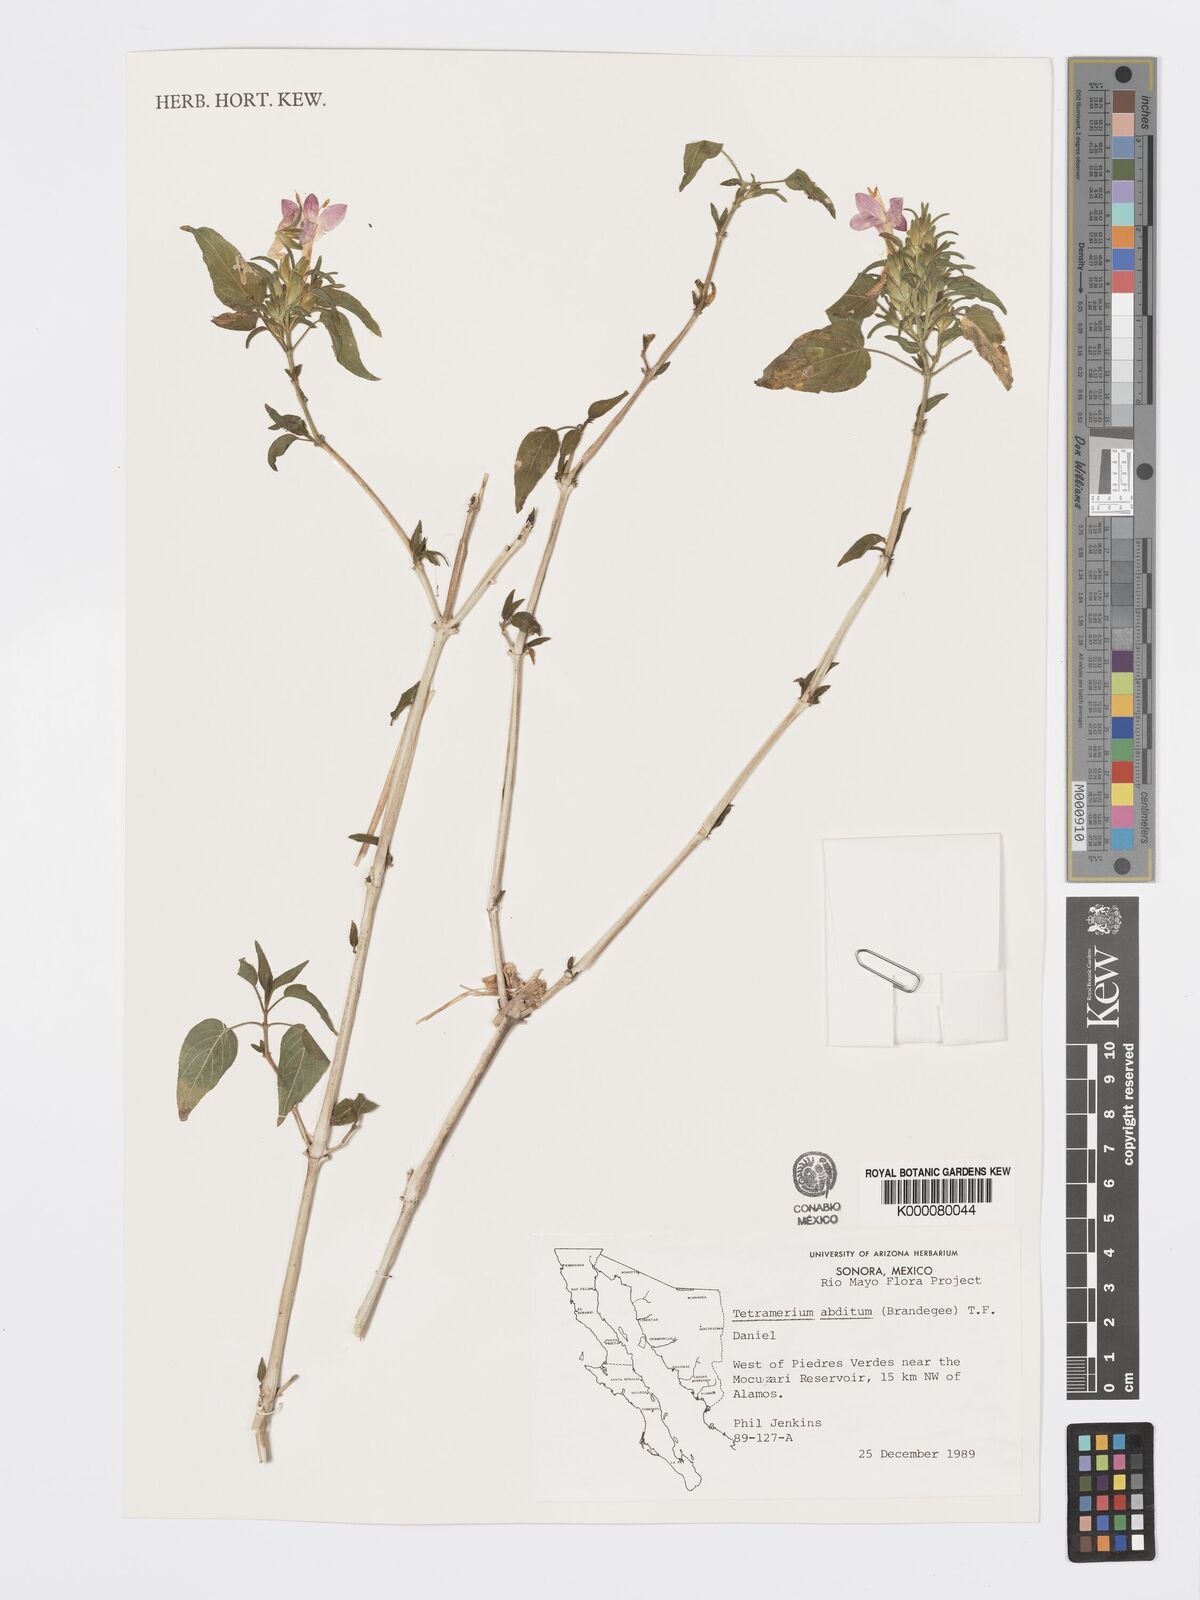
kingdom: Plantae
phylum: Tracheophyta
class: Magnoliopsida
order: Lamiales
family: Acanthaceae
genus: Tetramerium
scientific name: Tetramerium abditum
